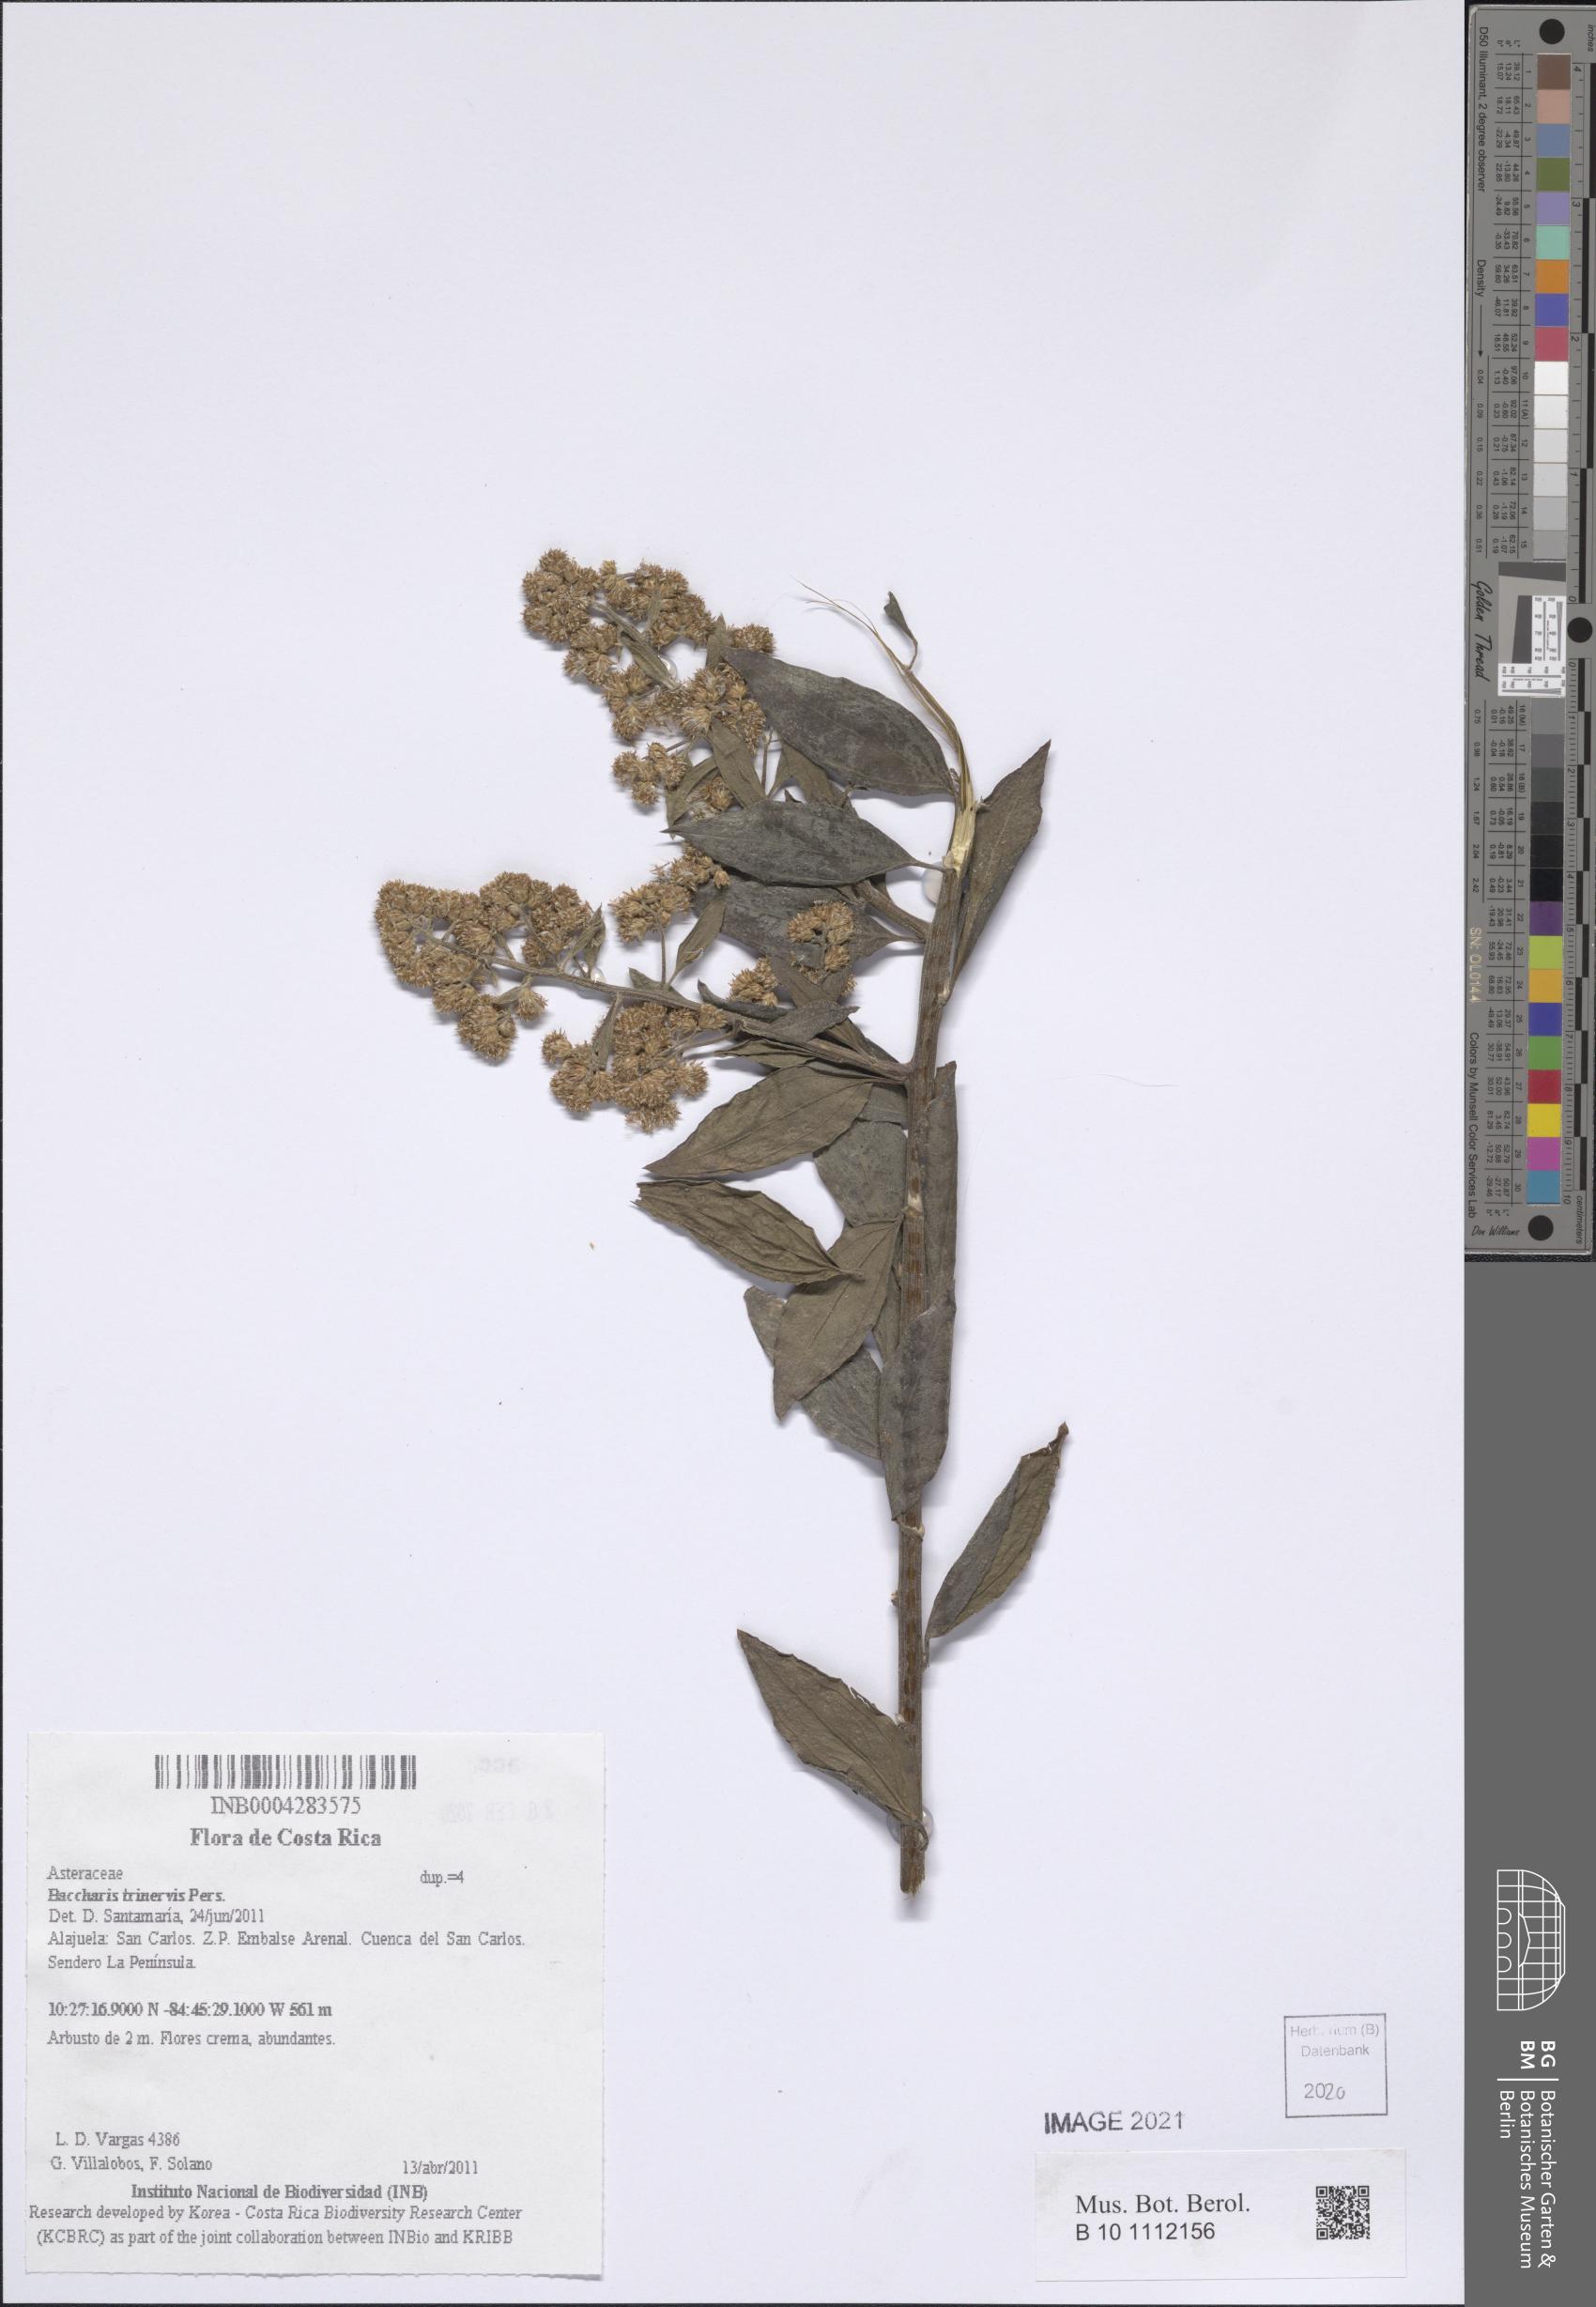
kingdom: Plantae
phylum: Tracheophyta
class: Magnoliopsida
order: Asterales
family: Asteraceae
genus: Baccharis
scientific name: Baccharis trinervis
